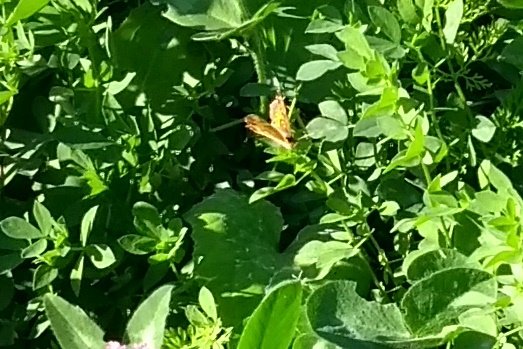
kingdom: Animalia
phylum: Arthropoda
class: Insecta
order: Lepidoptera
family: Nymphalidae
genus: Phyciodes
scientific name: Phyciodes tharos
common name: Northern Crescent
